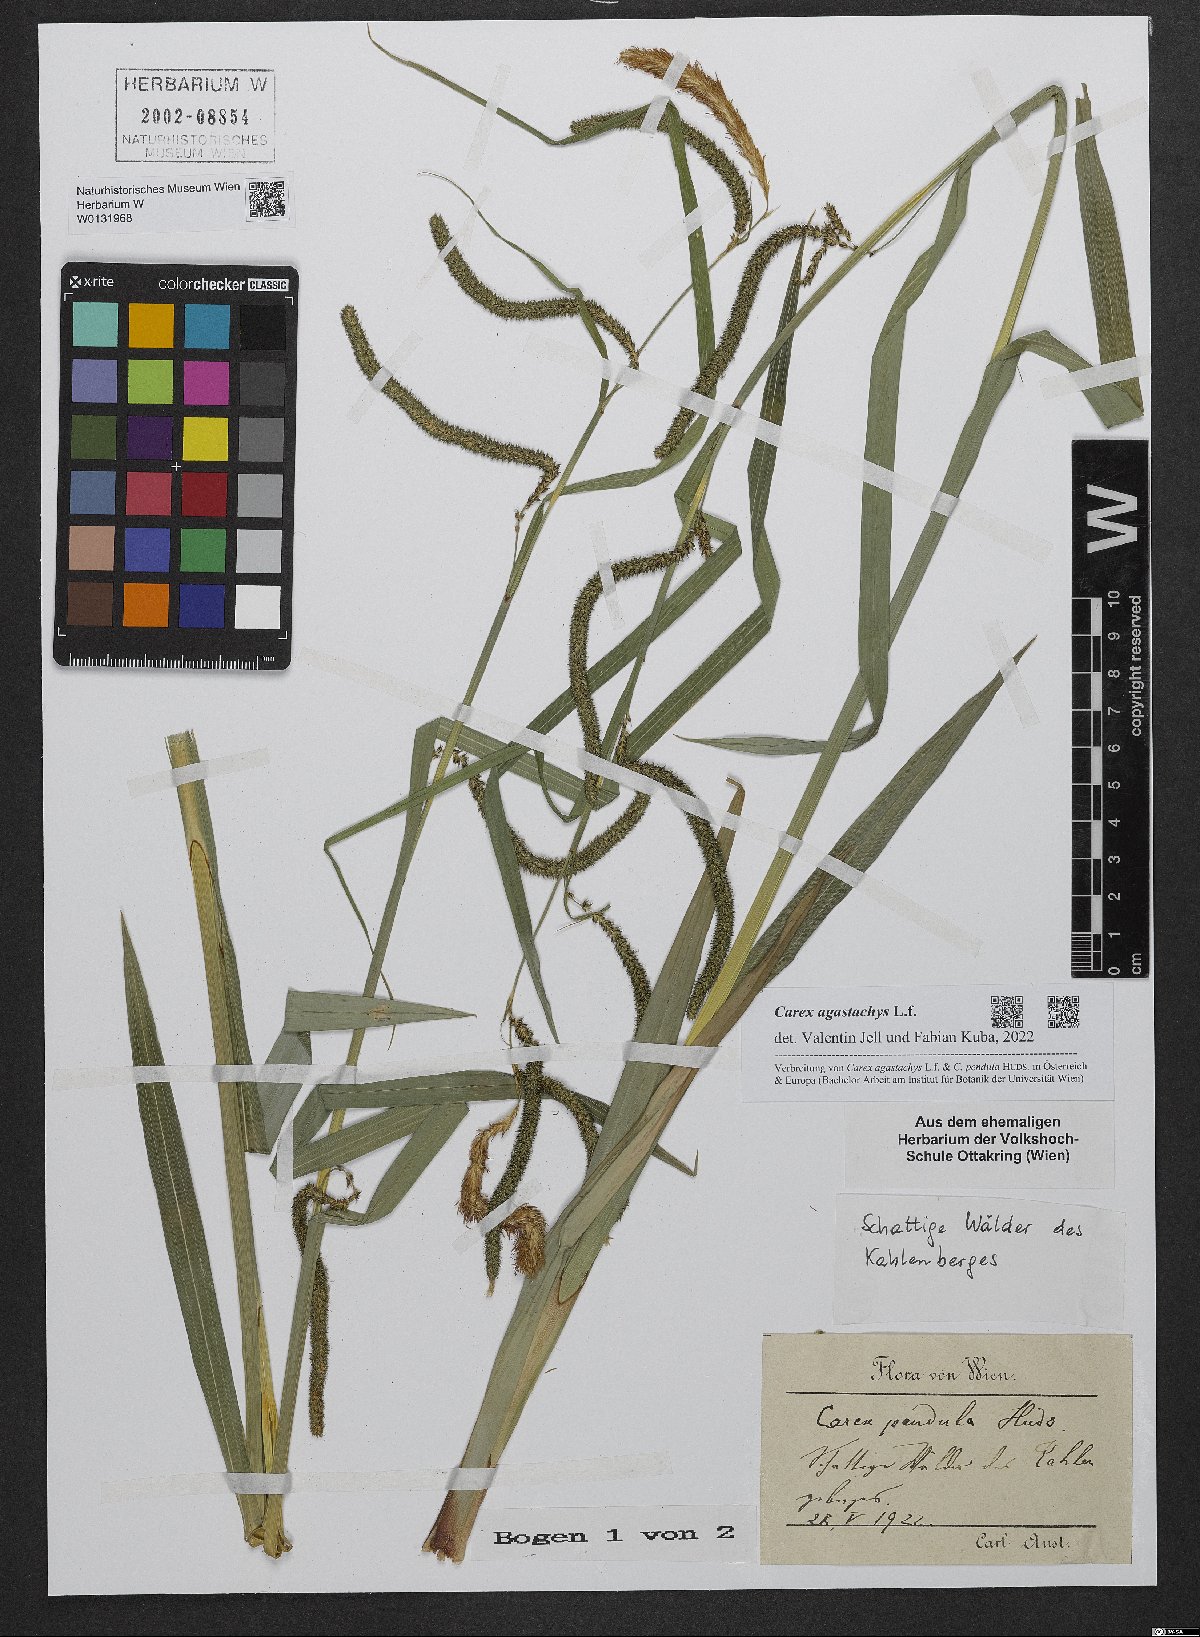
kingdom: Plantae
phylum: Tracheophyta
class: Liliopsida
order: Poales
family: Cyperaceae
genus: Carex
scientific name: Carex agastachys
